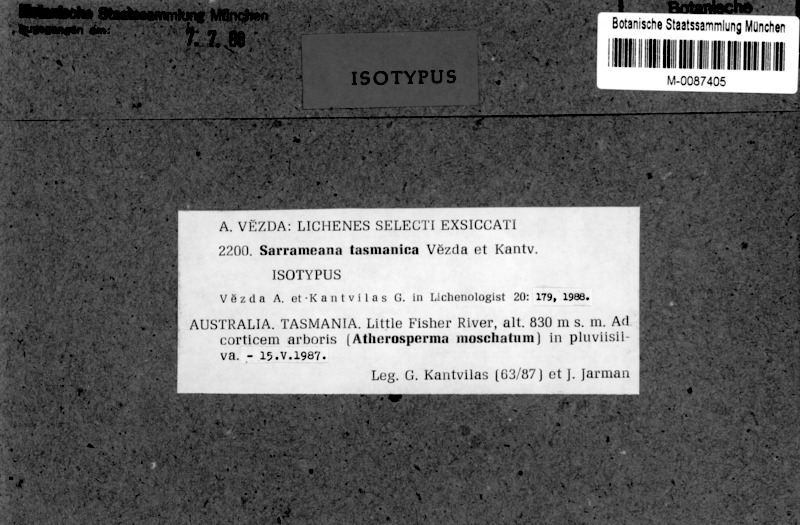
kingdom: Fungi
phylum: Ascomycota
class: Lecanoromycetes
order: Lecanorales
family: Sarrameanaceae
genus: Loxospora
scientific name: Loxospora solenospora
